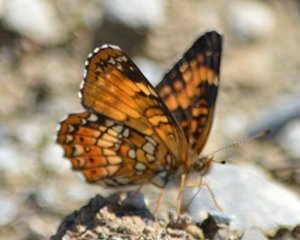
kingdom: Animalia
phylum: Arthropoda
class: Insecta
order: Lepidoptera
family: Nymphalidae
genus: Chlosyne
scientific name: Chlosyne harrisii
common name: Harris's Checkerspot
